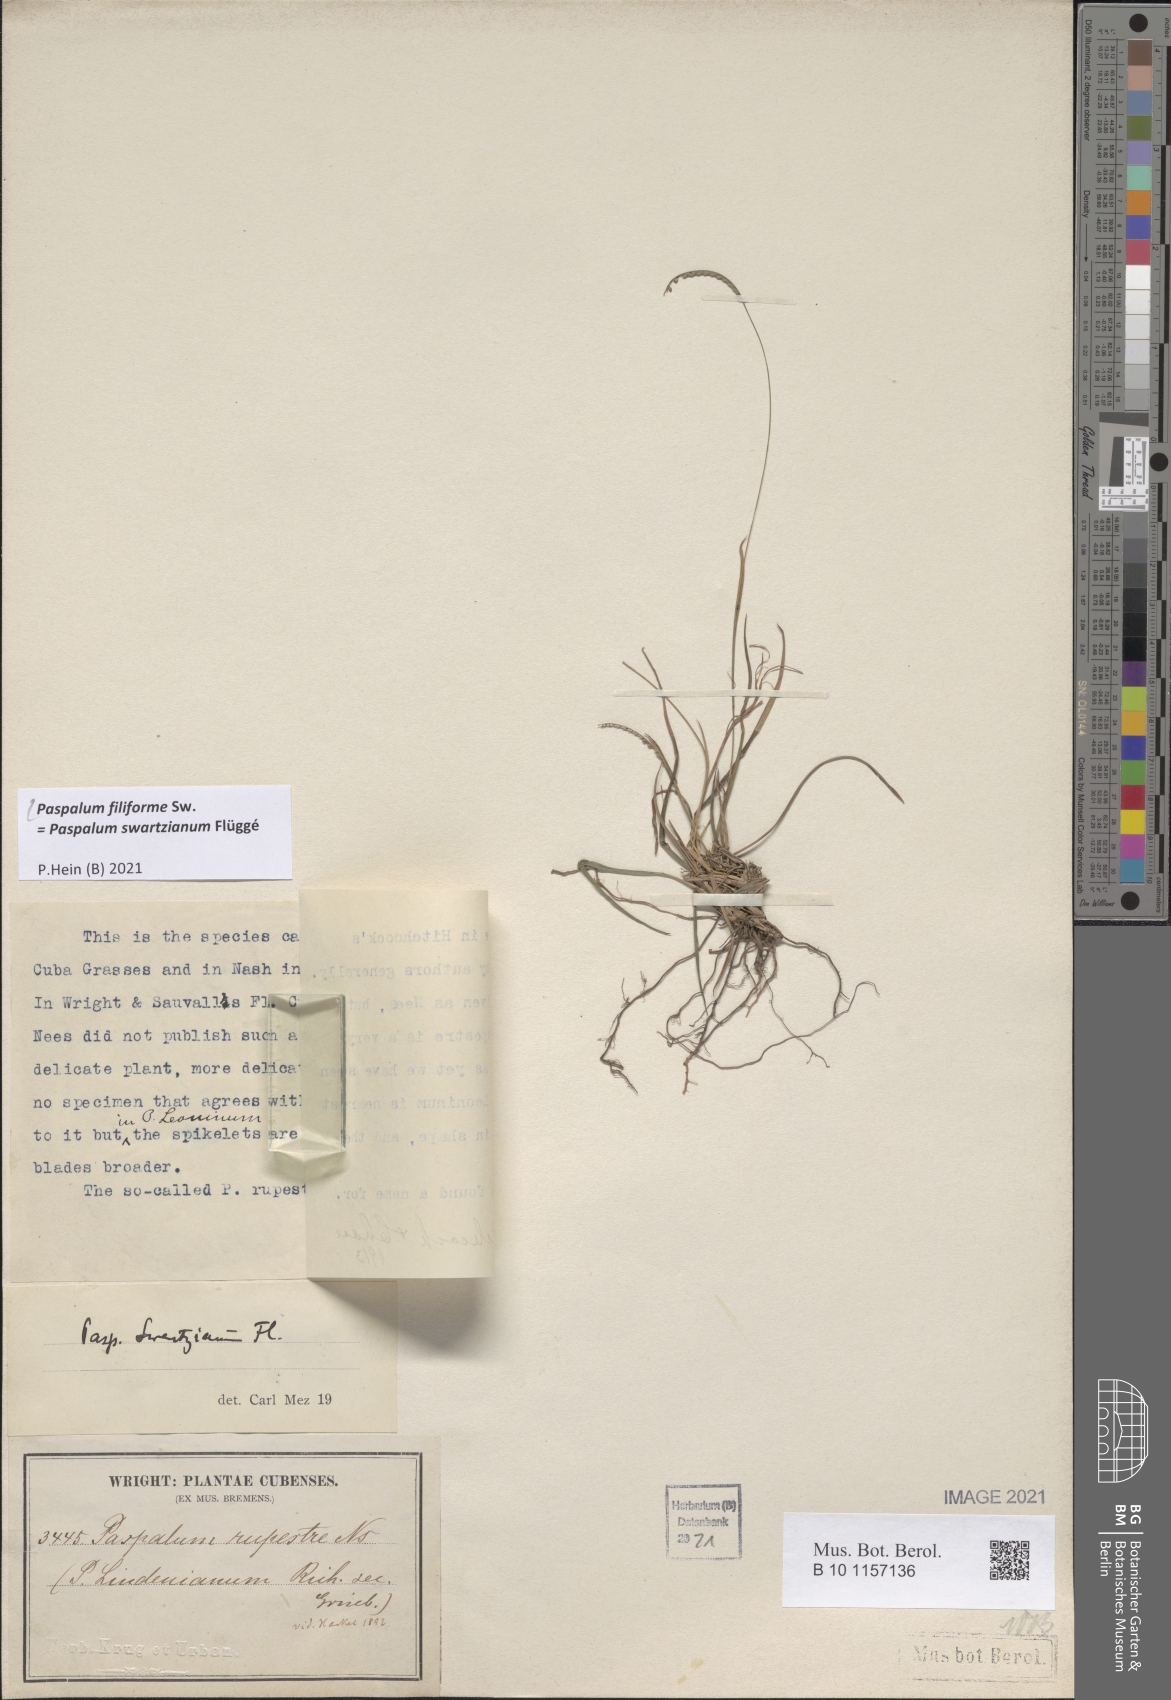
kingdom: Plantae
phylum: Tracheophyta
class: Liliopsida
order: Poales
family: Poaceae
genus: Paspalum
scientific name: Paspalum filiforme
